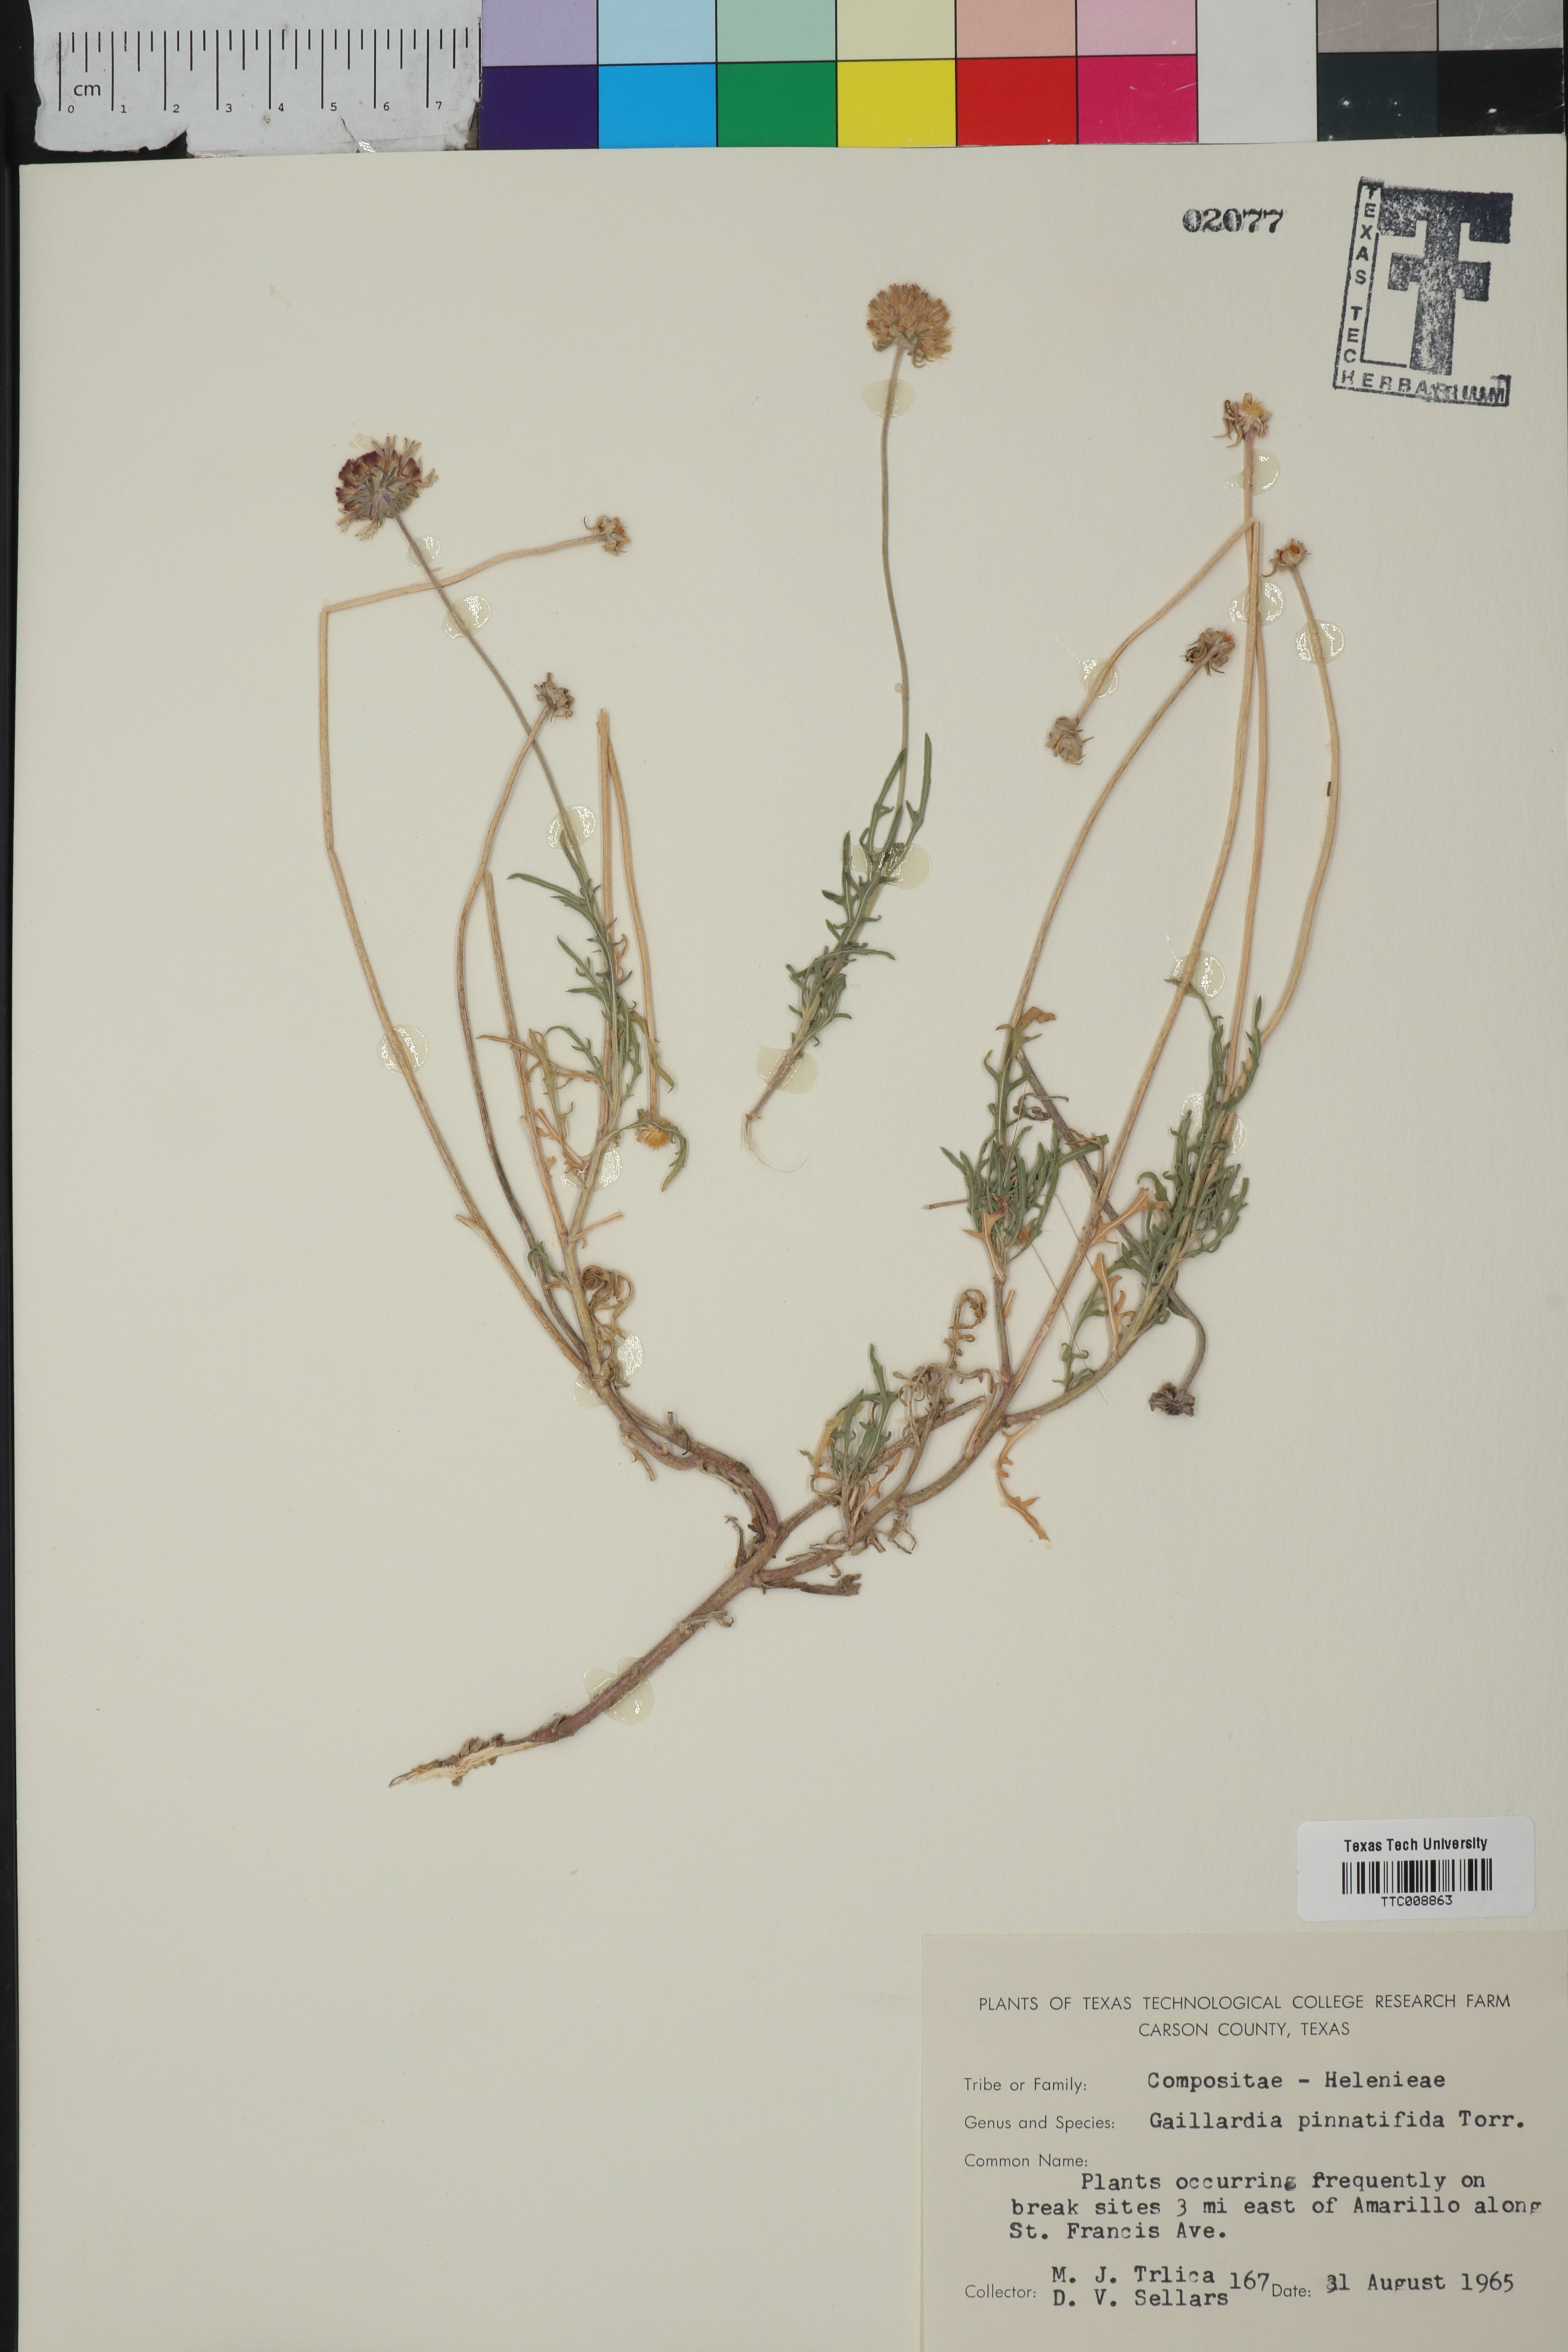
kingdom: Plantae
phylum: Tracheophyta
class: Magnoliopsida
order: Asterales
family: Asteraceae
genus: Gaillardia
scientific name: Gaillardia pinnatifida
